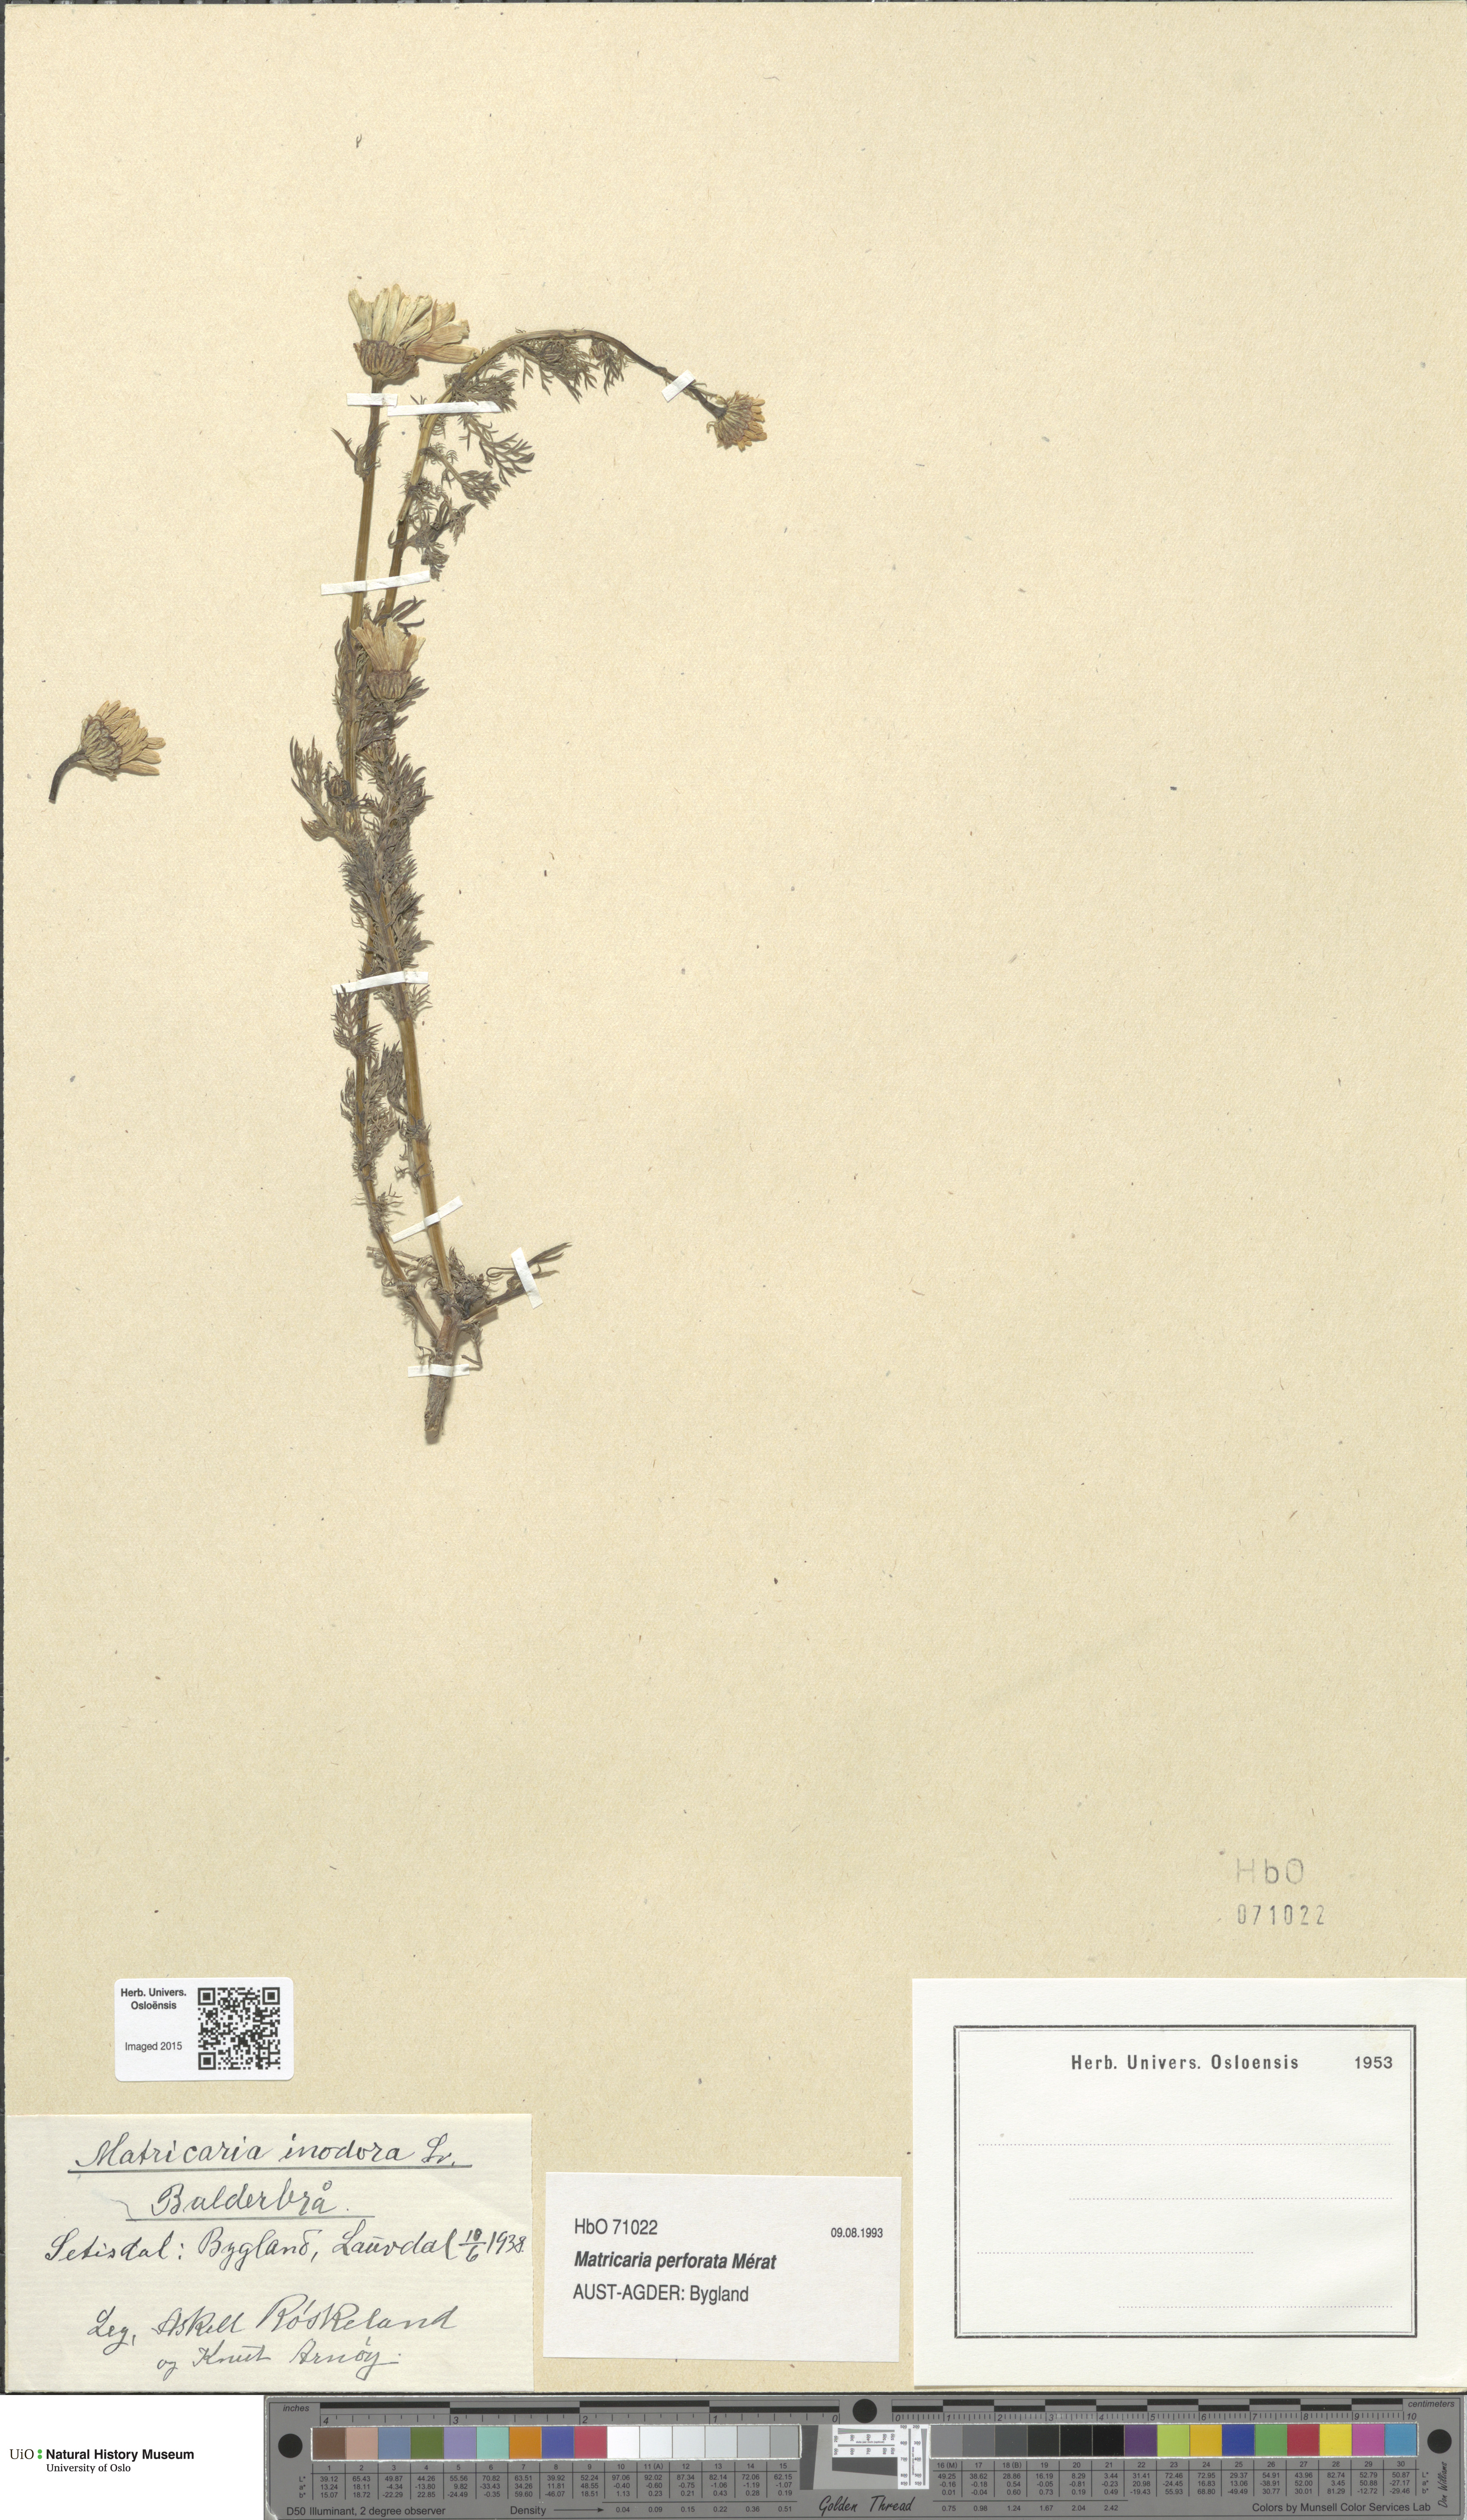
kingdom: Plantae
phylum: Tracheophyta
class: Magnoliopsida
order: Asterales
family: Asteraceae
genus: Tripleurospermum
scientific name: Tripleurospermum inodorum
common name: Scentless mayweed
